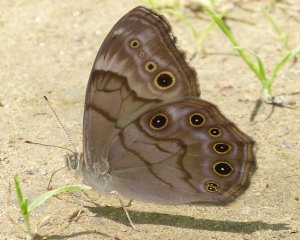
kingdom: Animalia
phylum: Arthropoda
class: Insecta
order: Lepidoptera
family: Nymphalidae
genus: Lethe
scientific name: Lethe anthedon
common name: Northern Pearly-Eye
